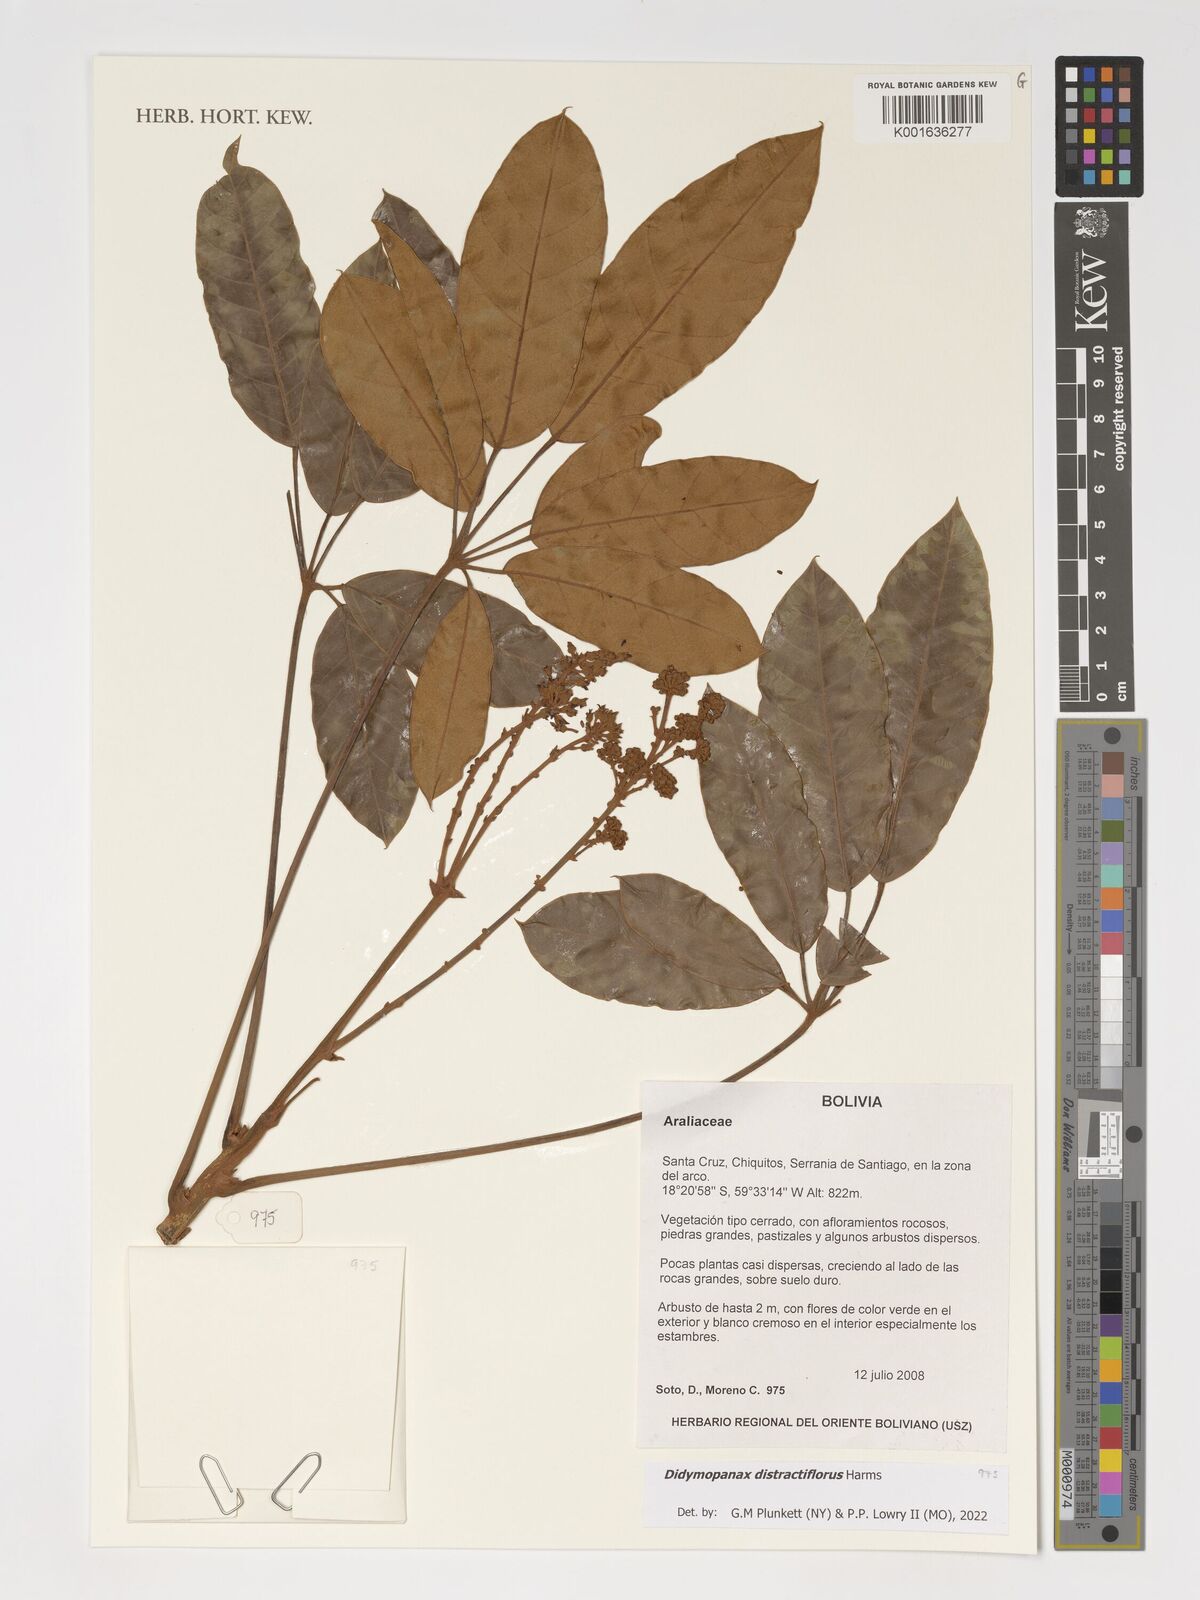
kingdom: Plantae
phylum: Tracheophyta
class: Magnoliopsida
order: Apiales
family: Araliaceae
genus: Didymopanax
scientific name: Didymopanax distractiflorus
